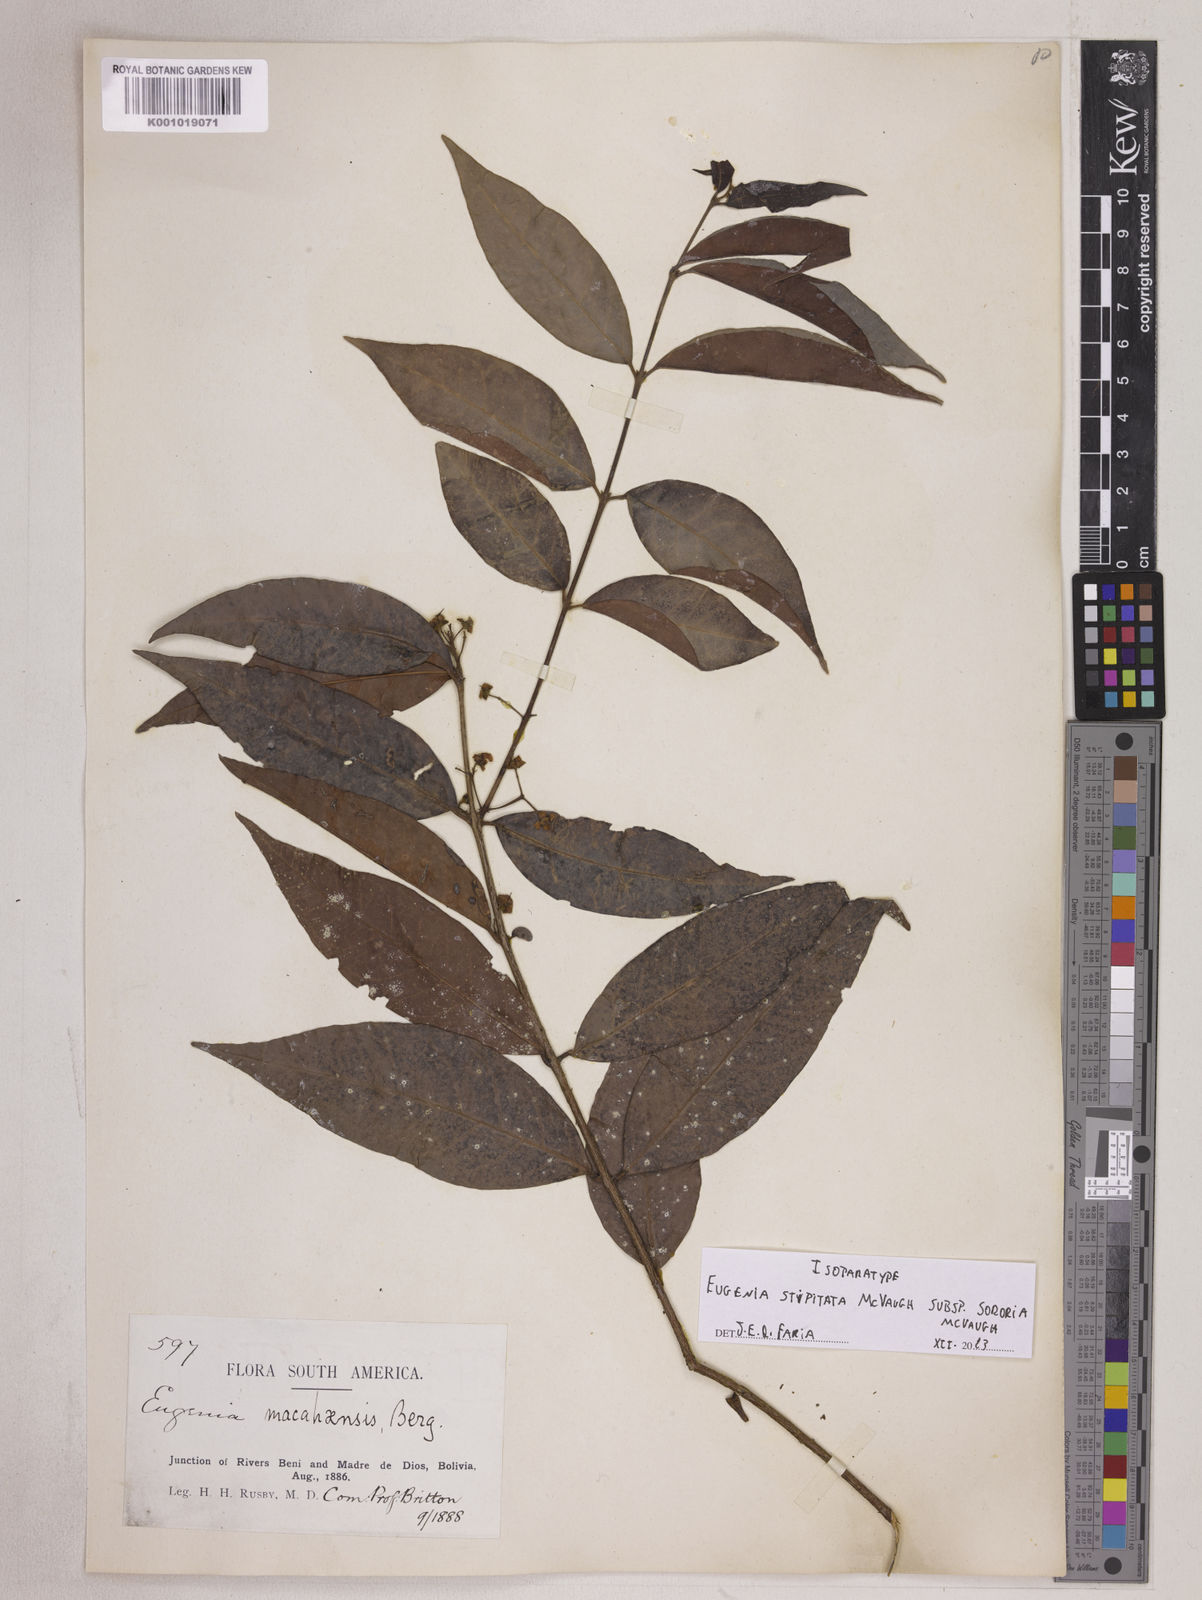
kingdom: Plantae
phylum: Tracheophyta
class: Magnoliopsida
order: Myrtales
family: Myrtaceae
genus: Eugenia
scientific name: Eugenia stipitata
